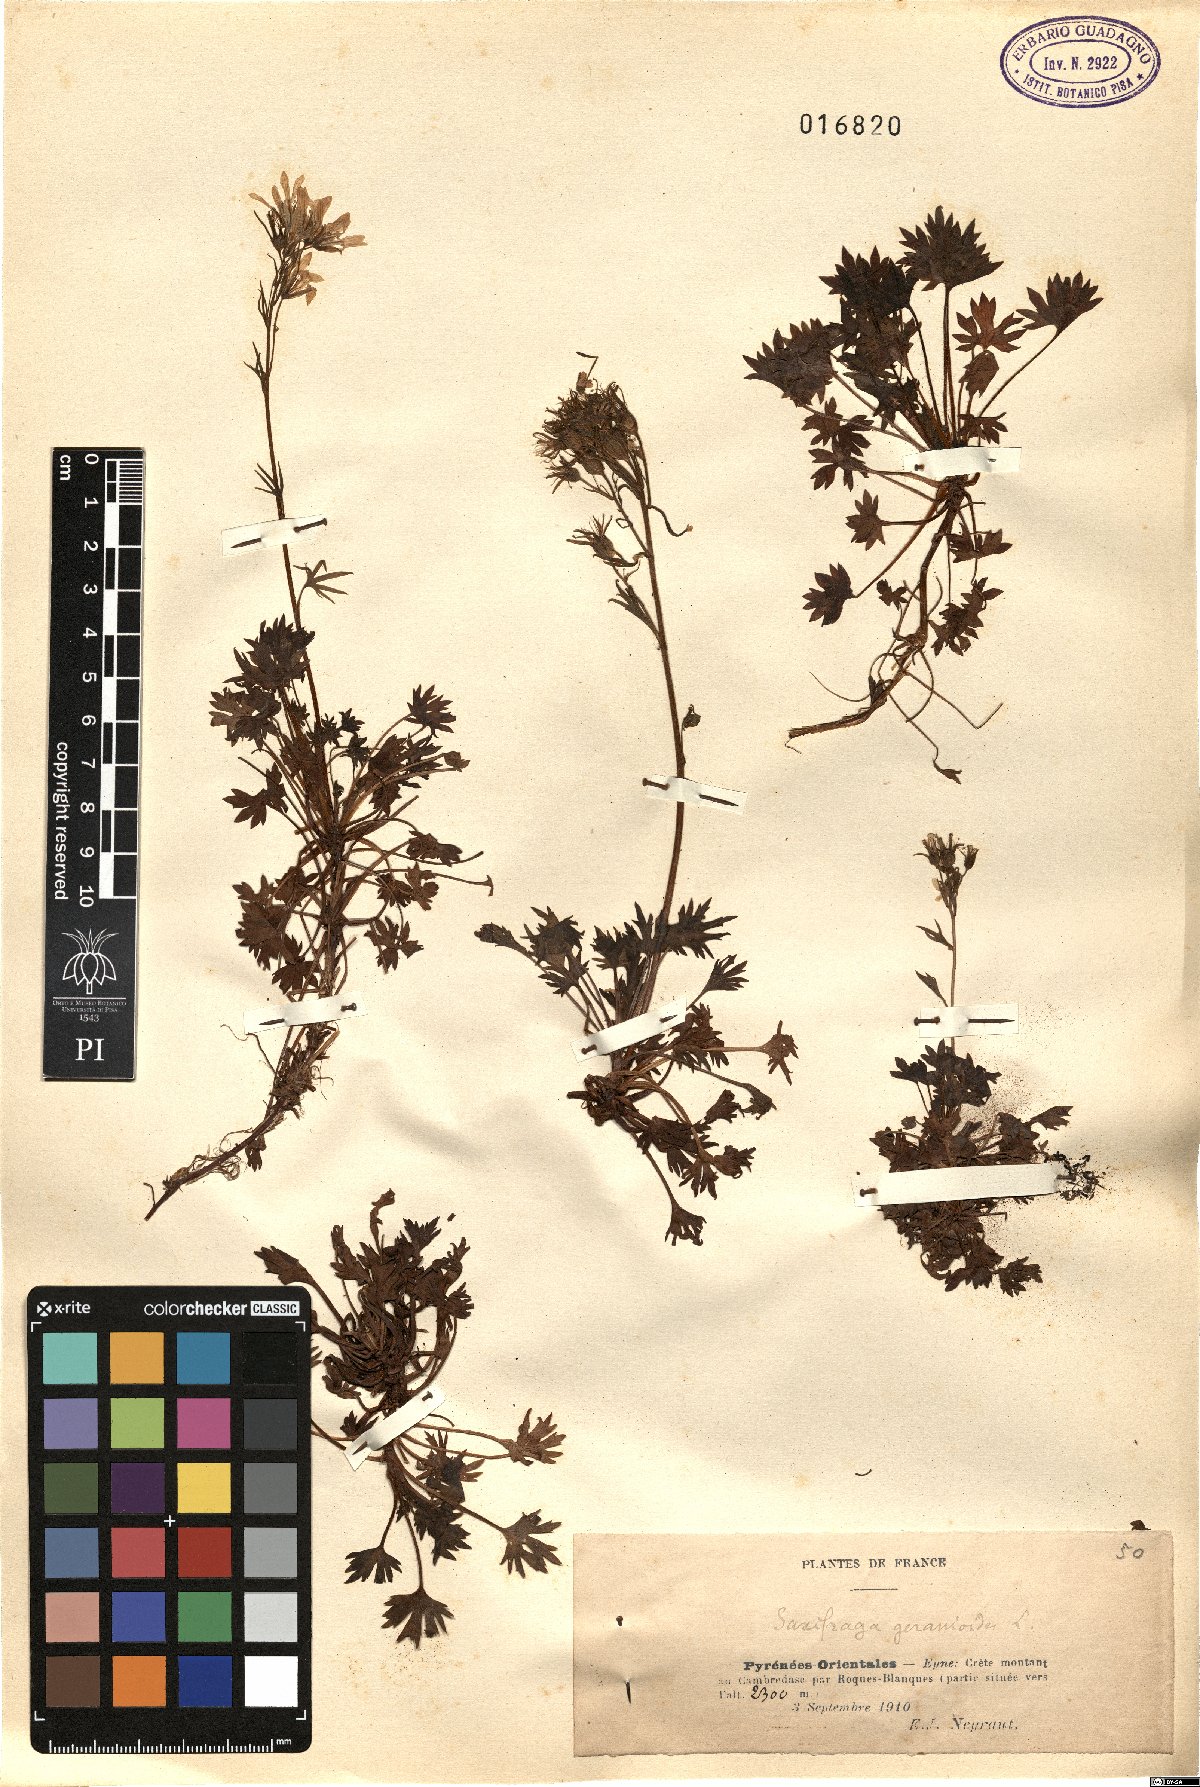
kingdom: Plantae
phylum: Tracheophyta
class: Magnoliopsida
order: Saxifragales
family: Saxifragaceae
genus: Saxifraga
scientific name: Saxifraga geranioides
